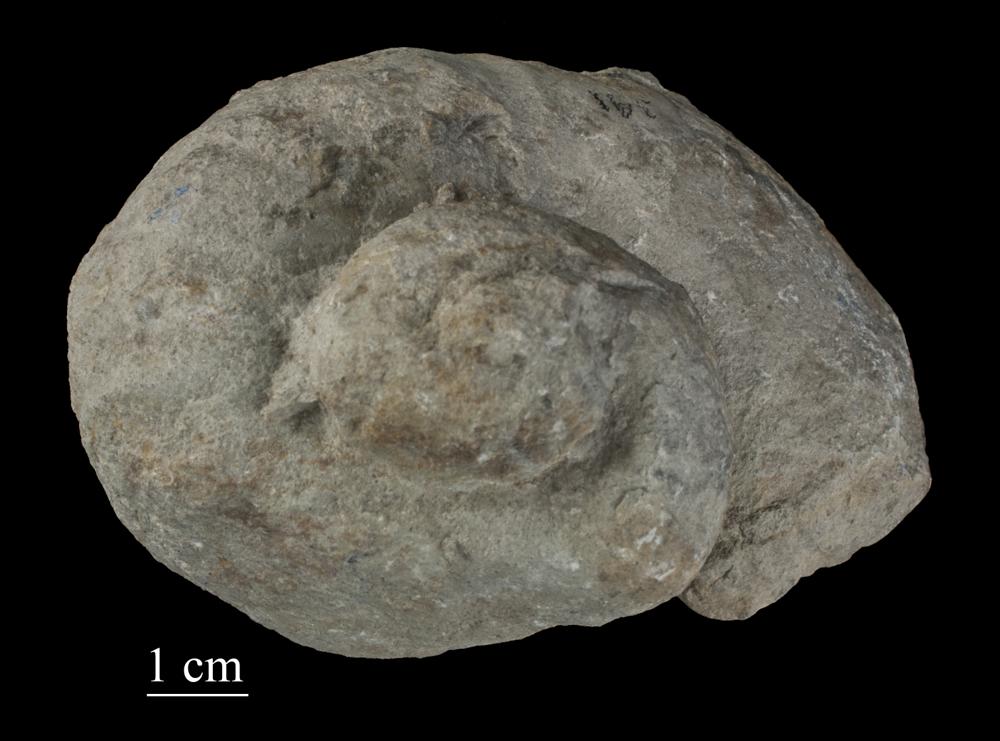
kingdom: Animalia
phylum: Mollusca
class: Gastropoda
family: Holopeidae
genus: Holopea
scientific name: Holopea ampullacea
